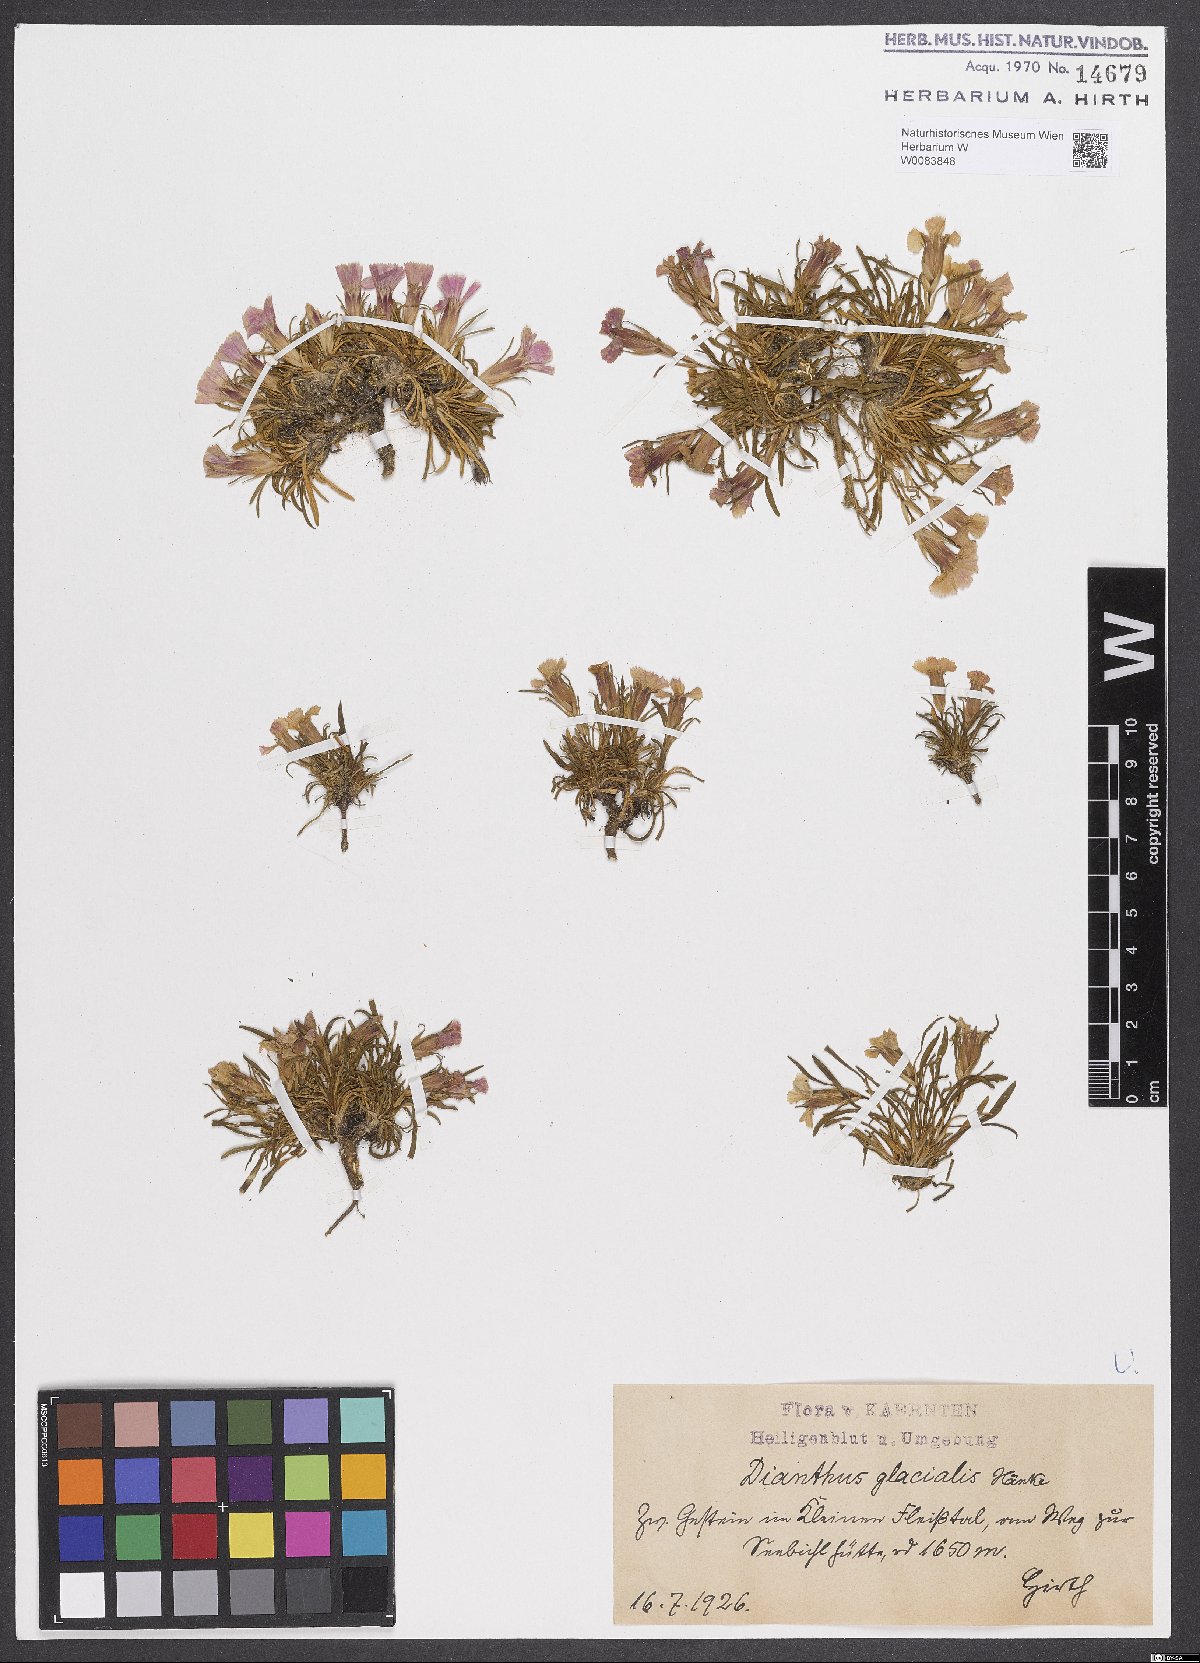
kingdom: Plantae
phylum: Tracheophyta
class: Magnoliopsida
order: Caryophyllales
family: Caryophyllaceae
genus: Dianthus
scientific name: Dianthus glacialis
